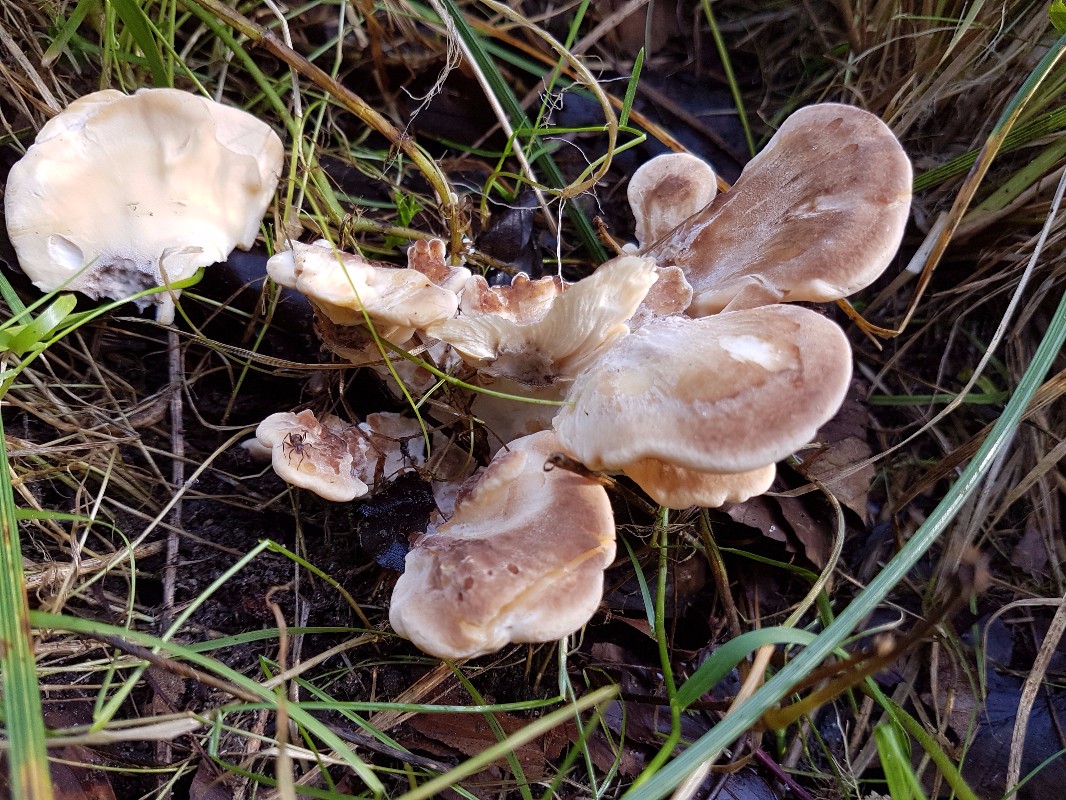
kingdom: Fungi
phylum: Basidiomycota
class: Agaricomycetes
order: Polyporales
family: Meripilaceae
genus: Meripilus
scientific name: Meripilus giganteus
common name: kæmpeporesvamp
